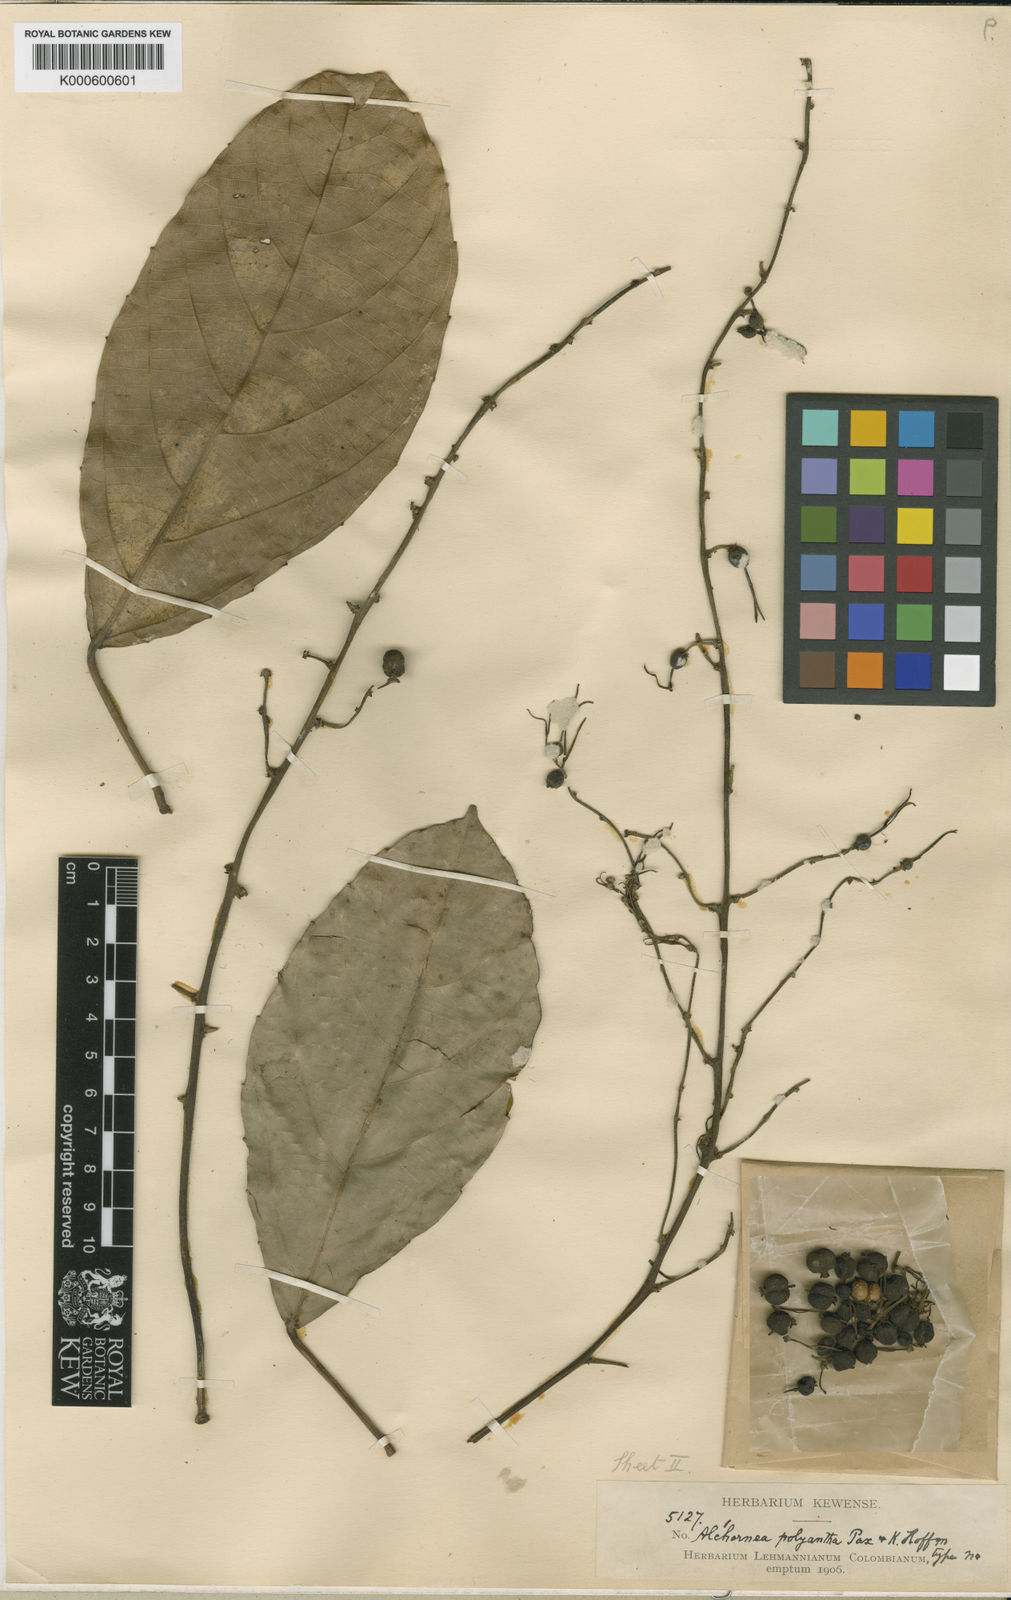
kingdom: Plantae
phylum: Tracheophyta
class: Magnoliopsida
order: Malpighiales
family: Euphorbiaceae
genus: Alchornea
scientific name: Alchornea latifolia
